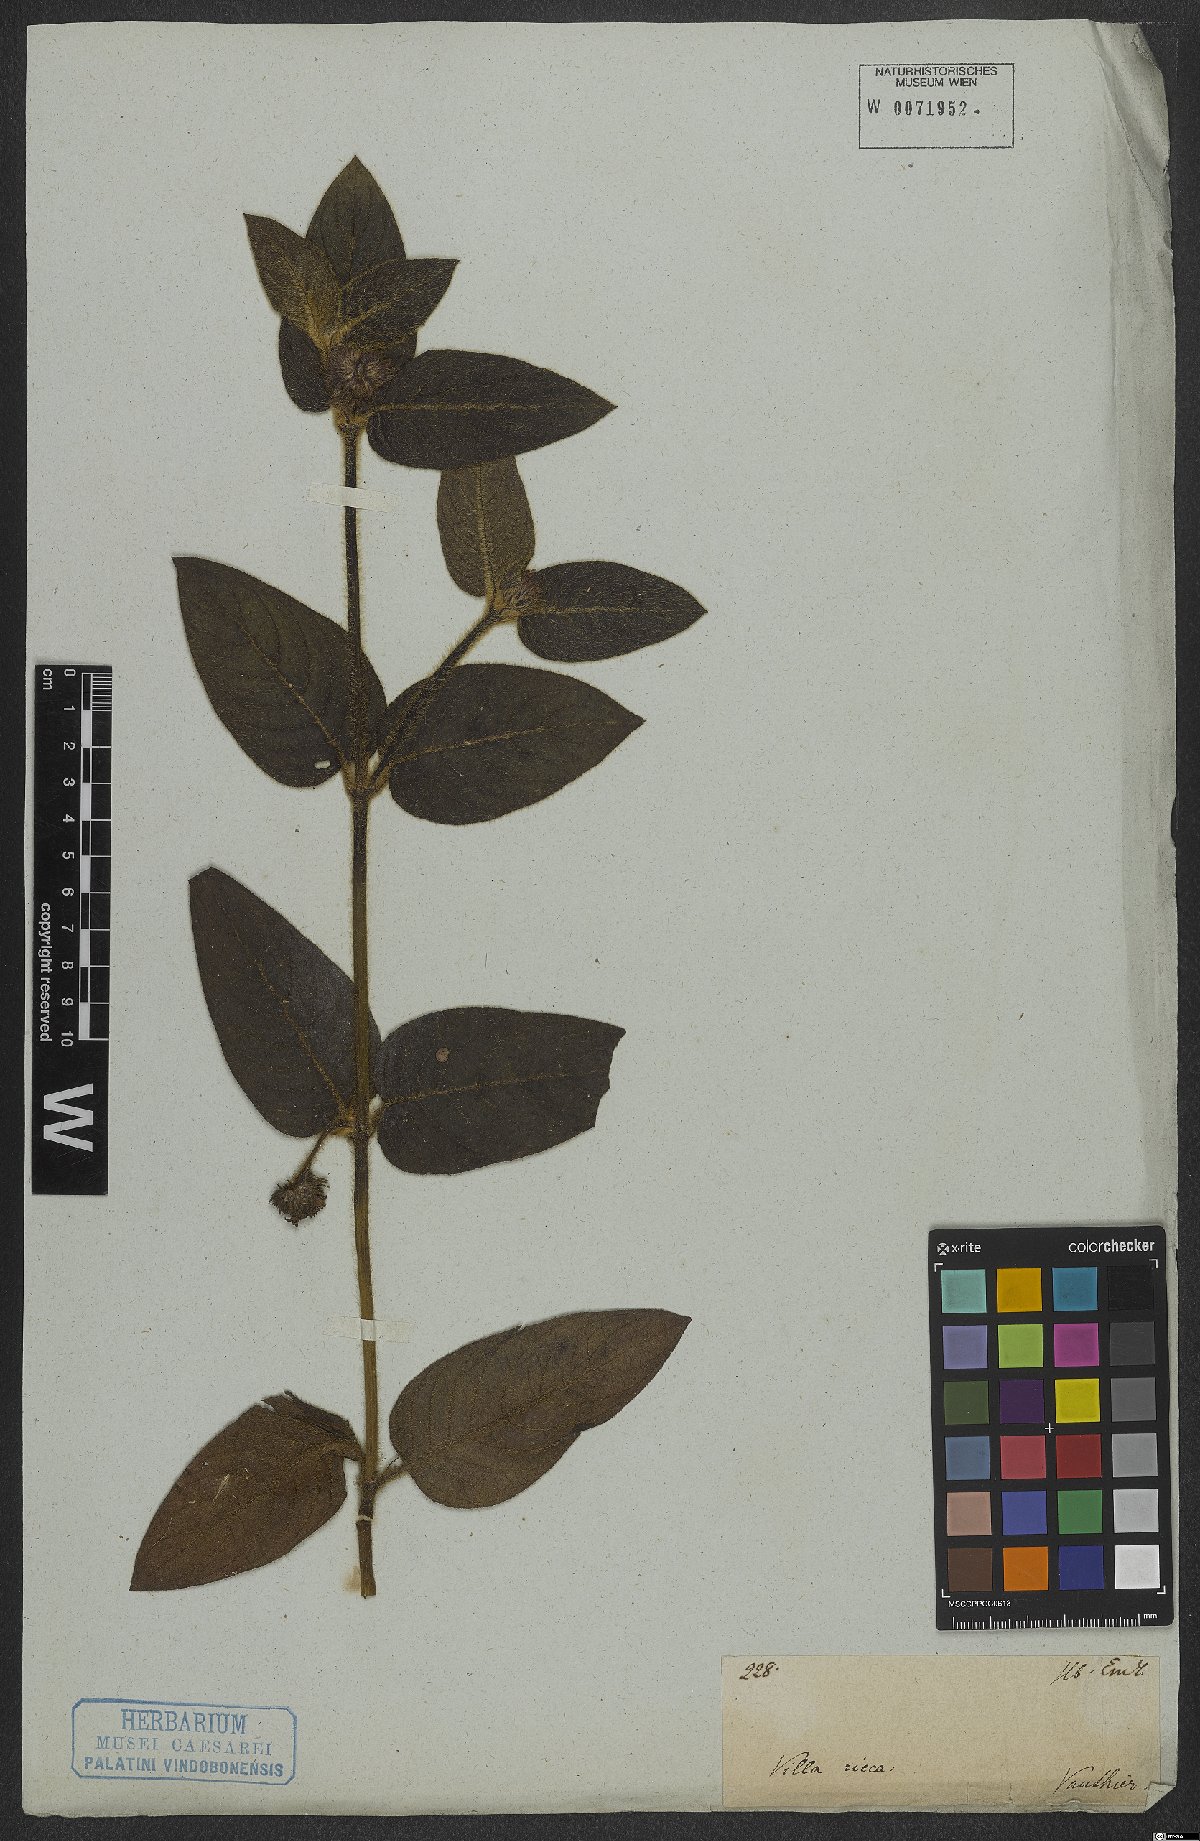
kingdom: Plantae
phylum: Tracheophyta
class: Magnoliopsida
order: Gentianales
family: Rubiaceae
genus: Coccocypselum
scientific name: Coccocypselum
